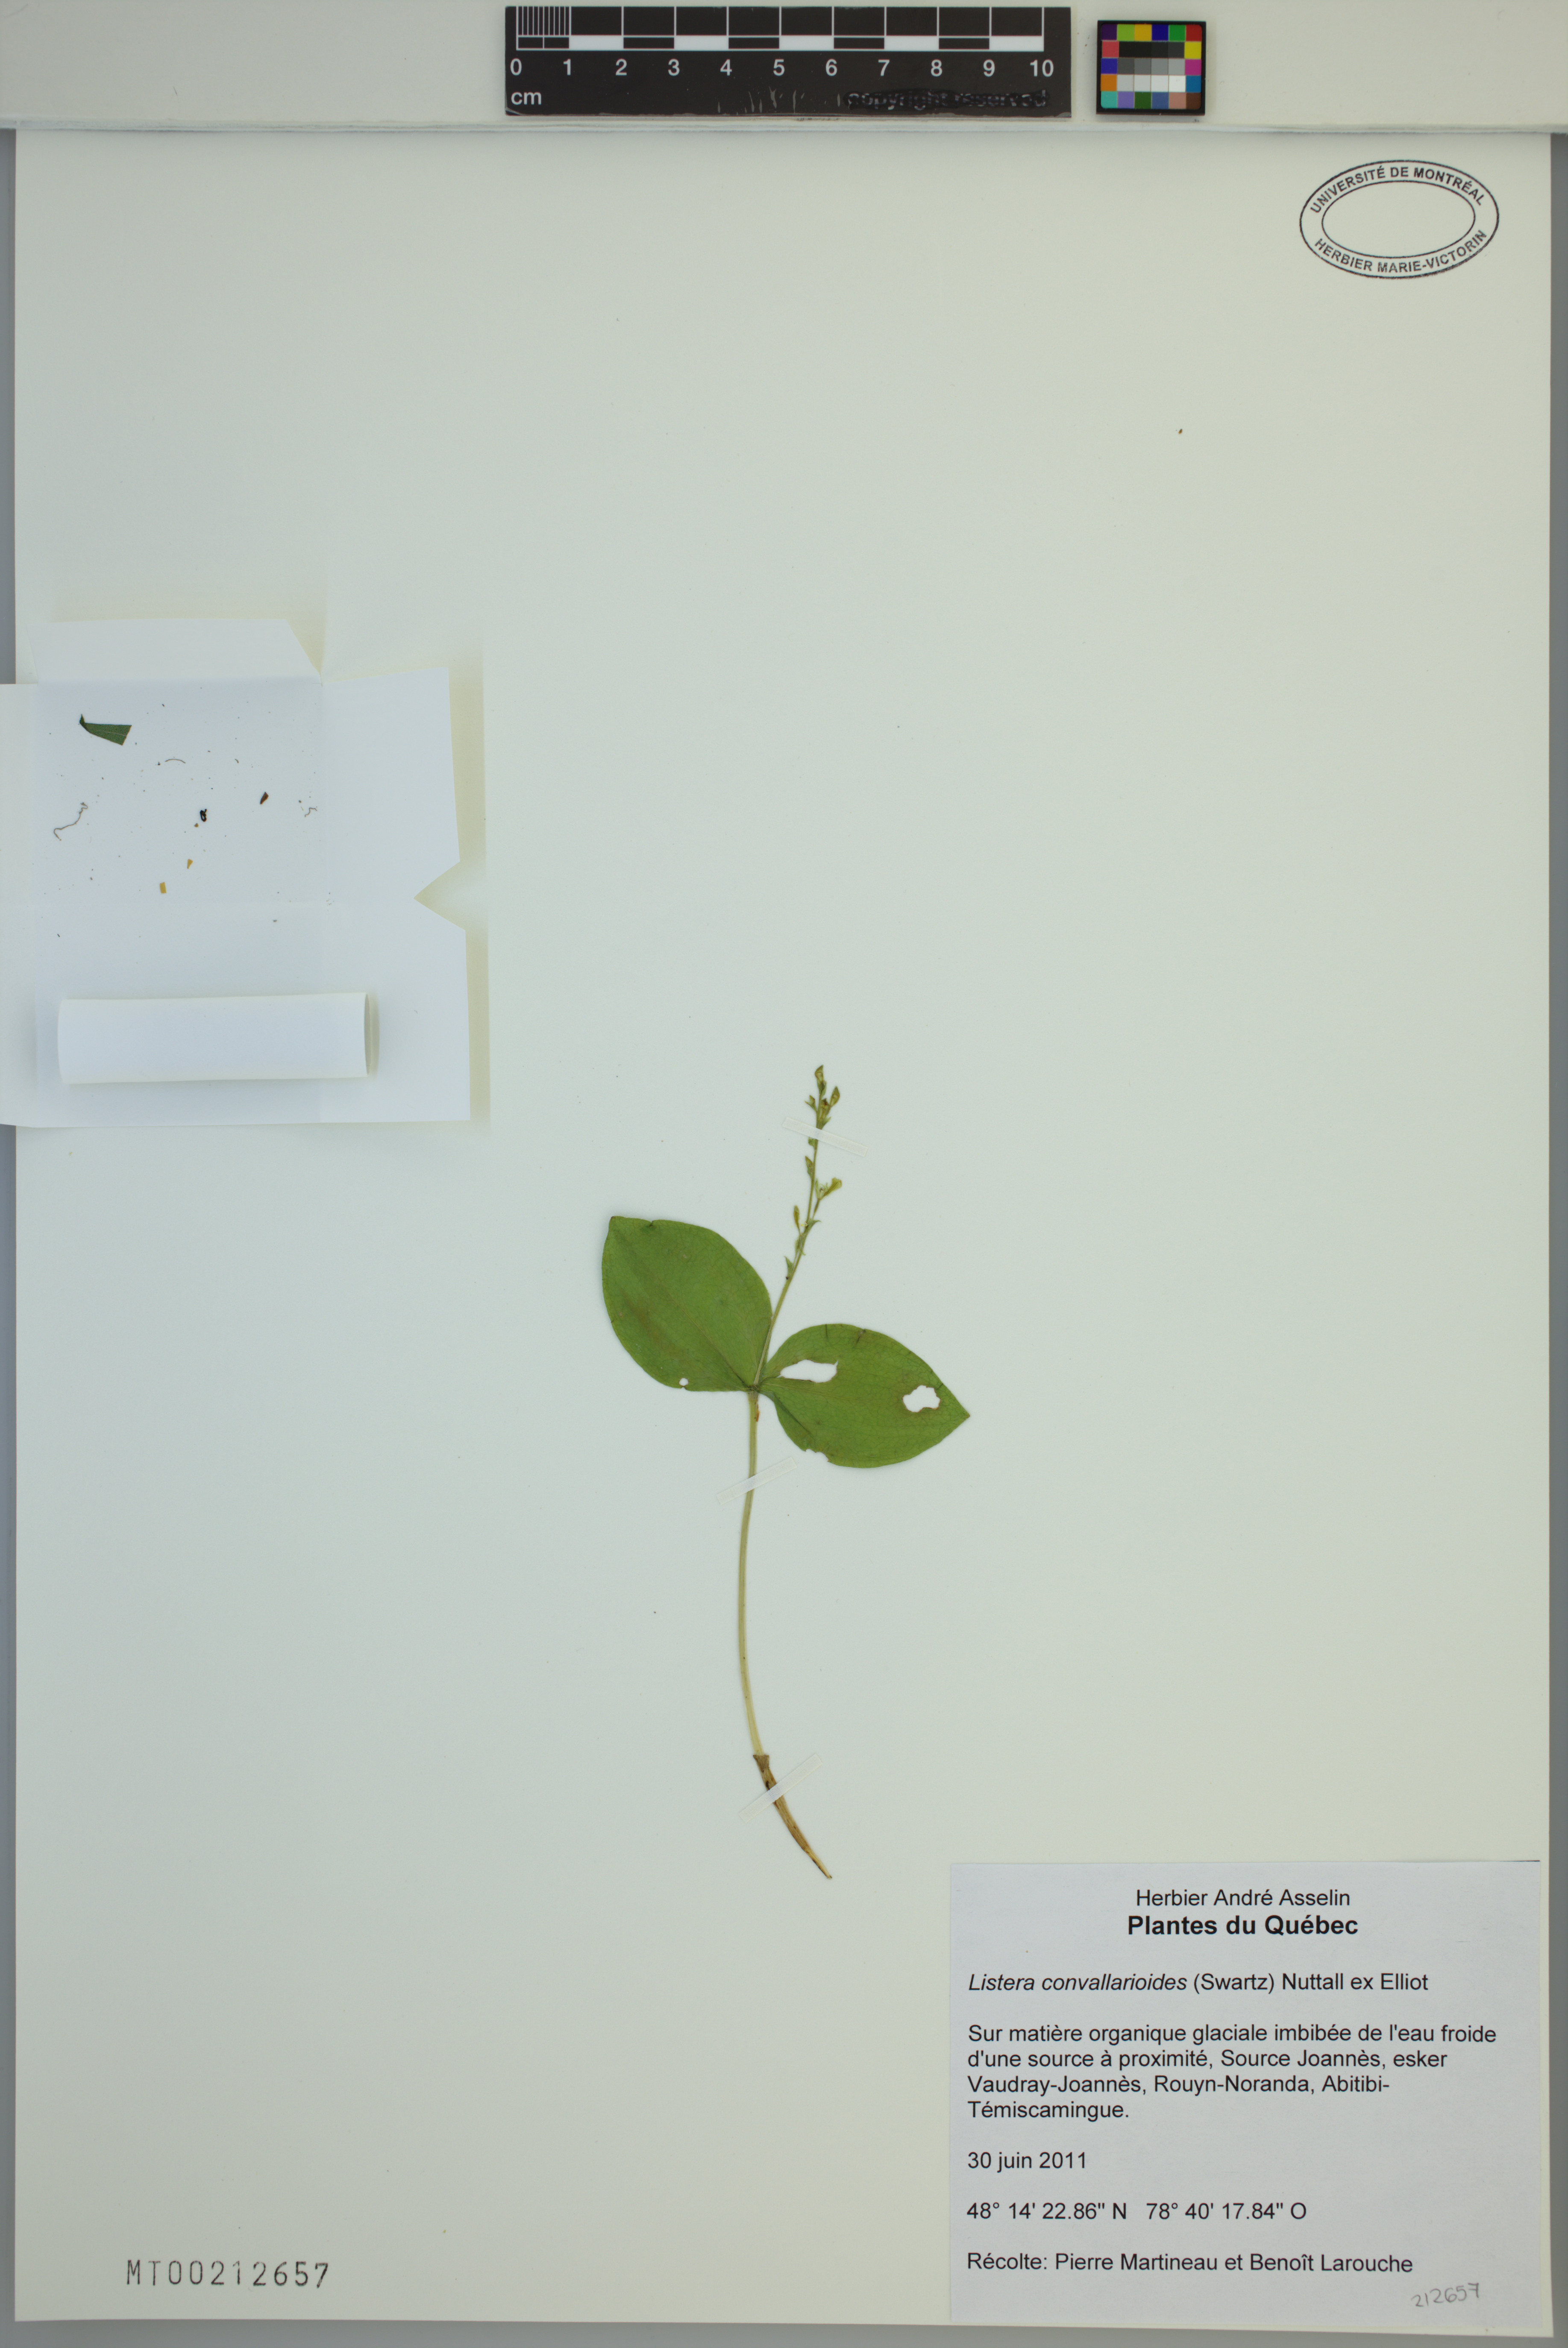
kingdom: Plantae
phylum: Tracheophyta
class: Liliopsida
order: Asparagales
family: Orchidaceae
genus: Neottia
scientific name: Neottia convallarioides
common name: Broadleaf twayblade
